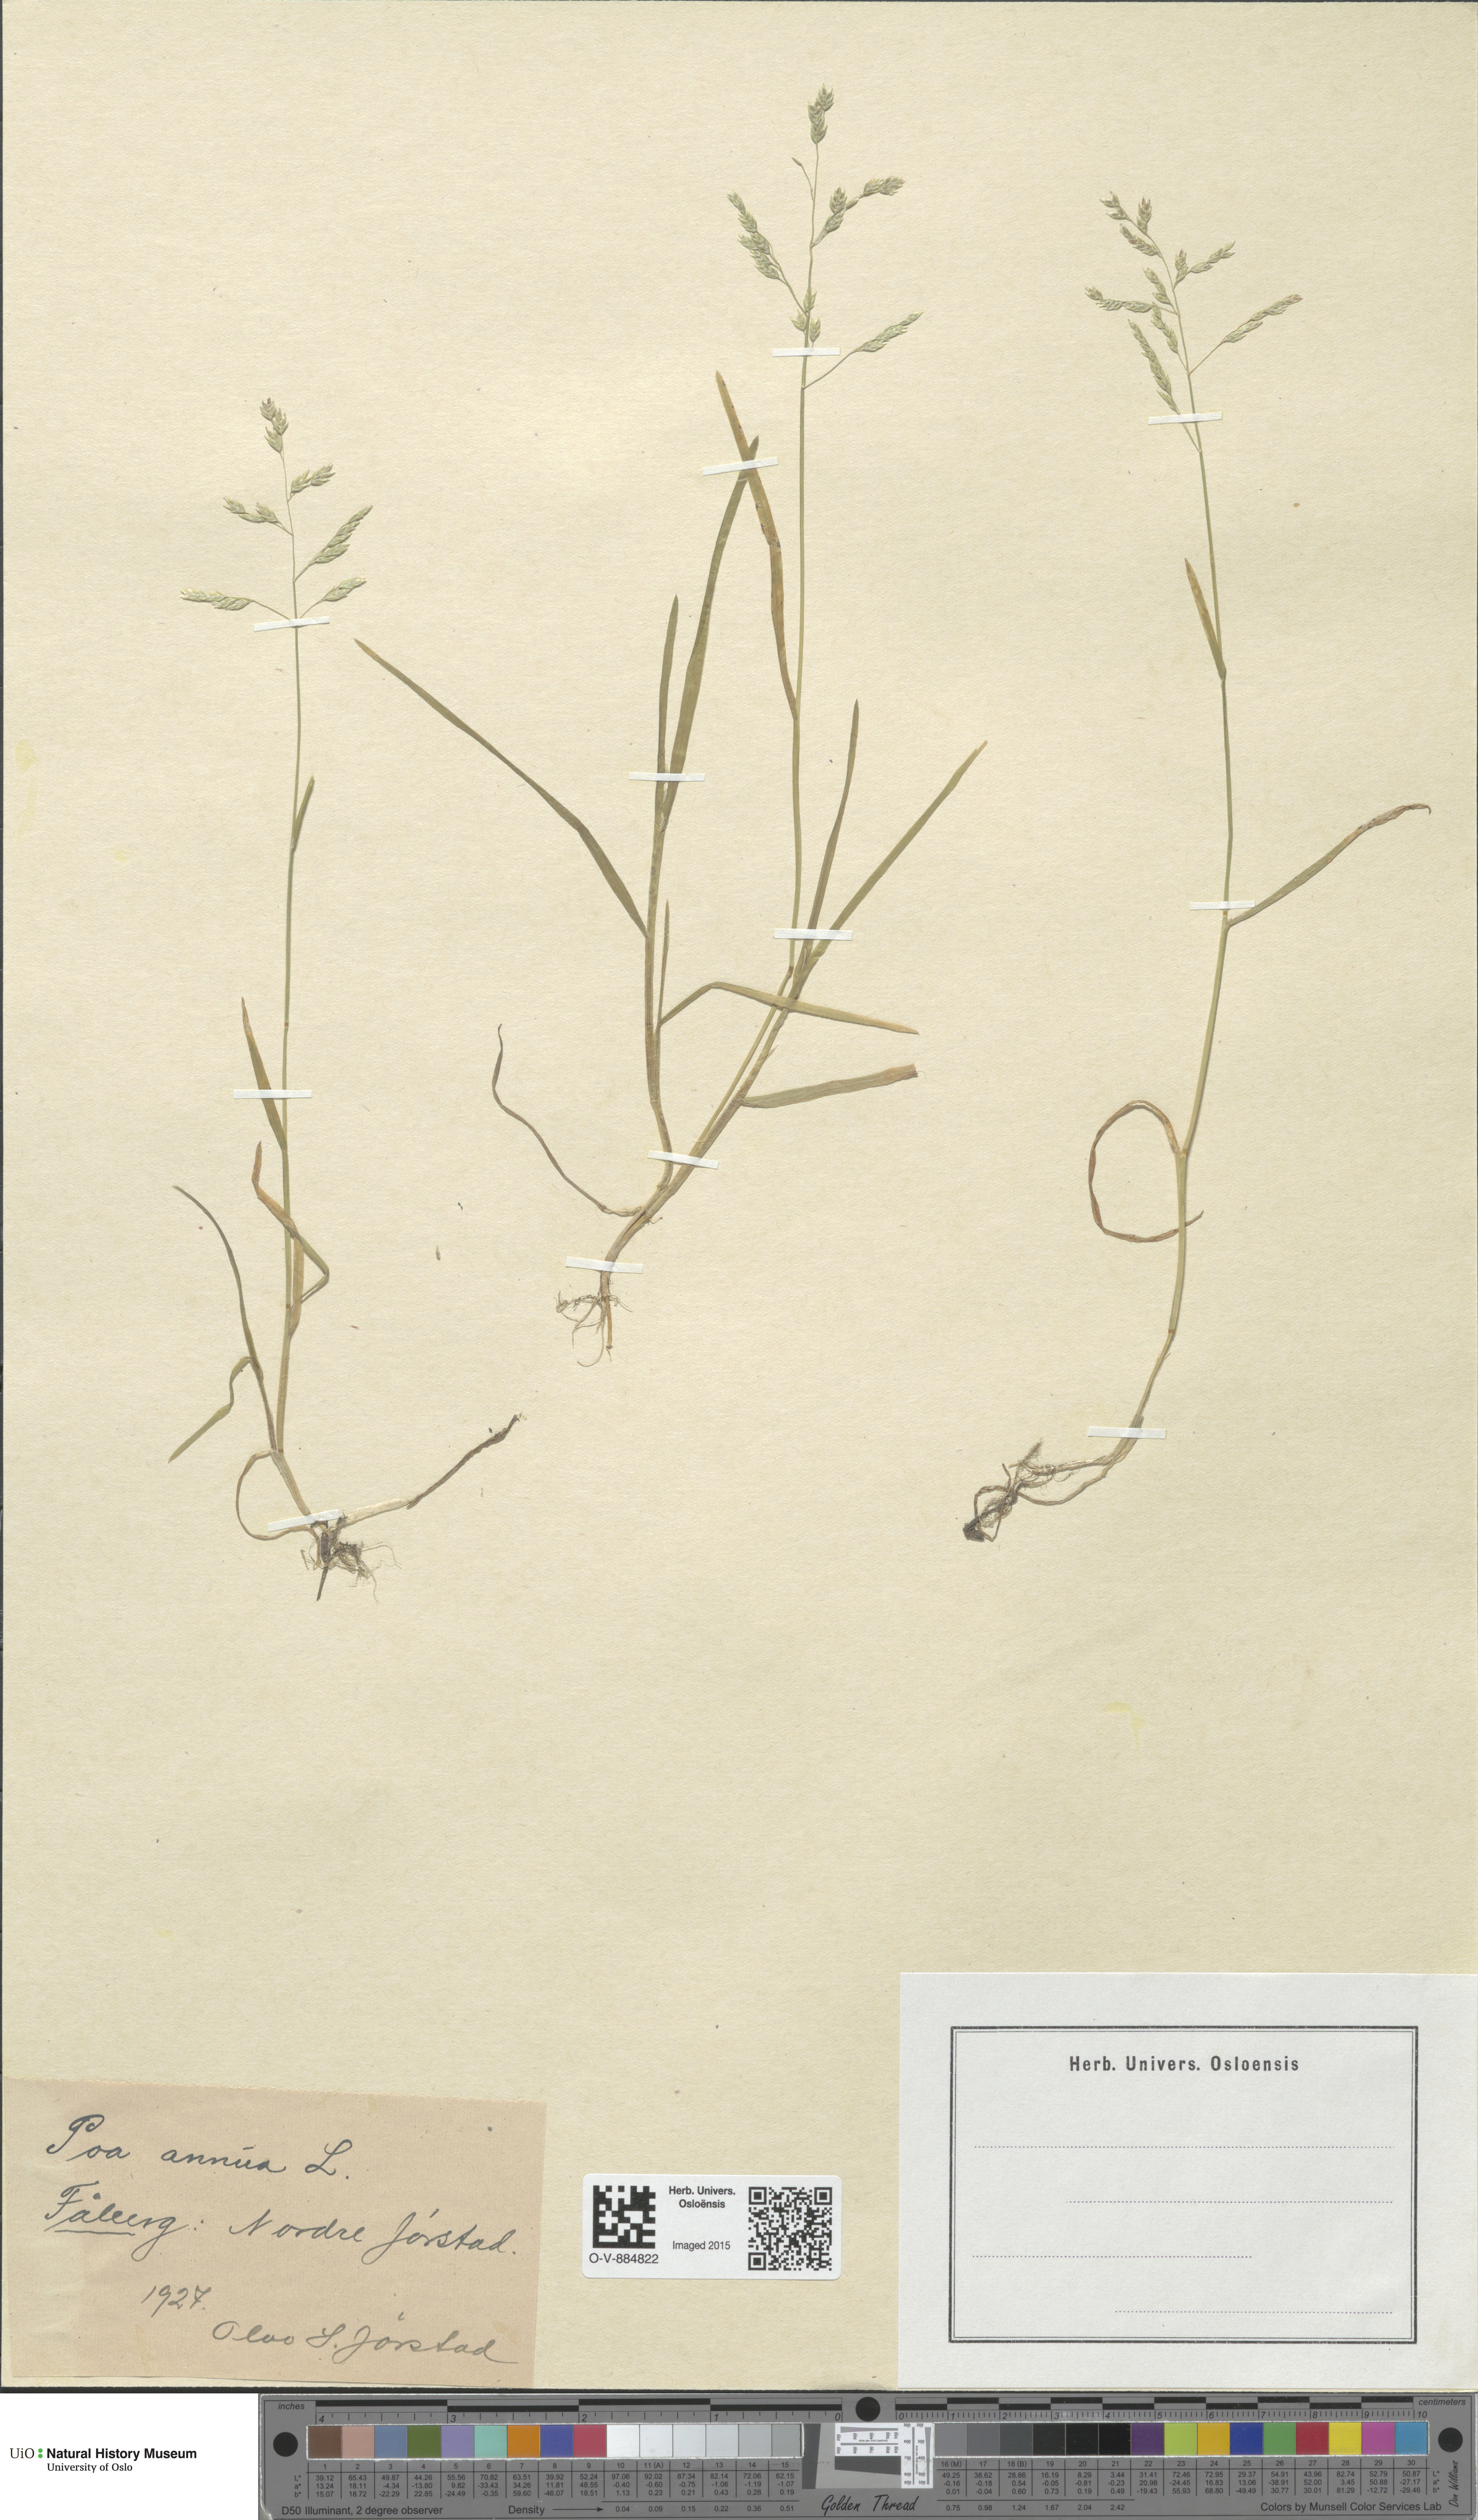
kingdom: Plantae
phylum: Tracheophyta
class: Liliopsida
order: Poales
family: Poaceae
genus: Poa
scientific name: Poa annua
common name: Annual bluegrass
